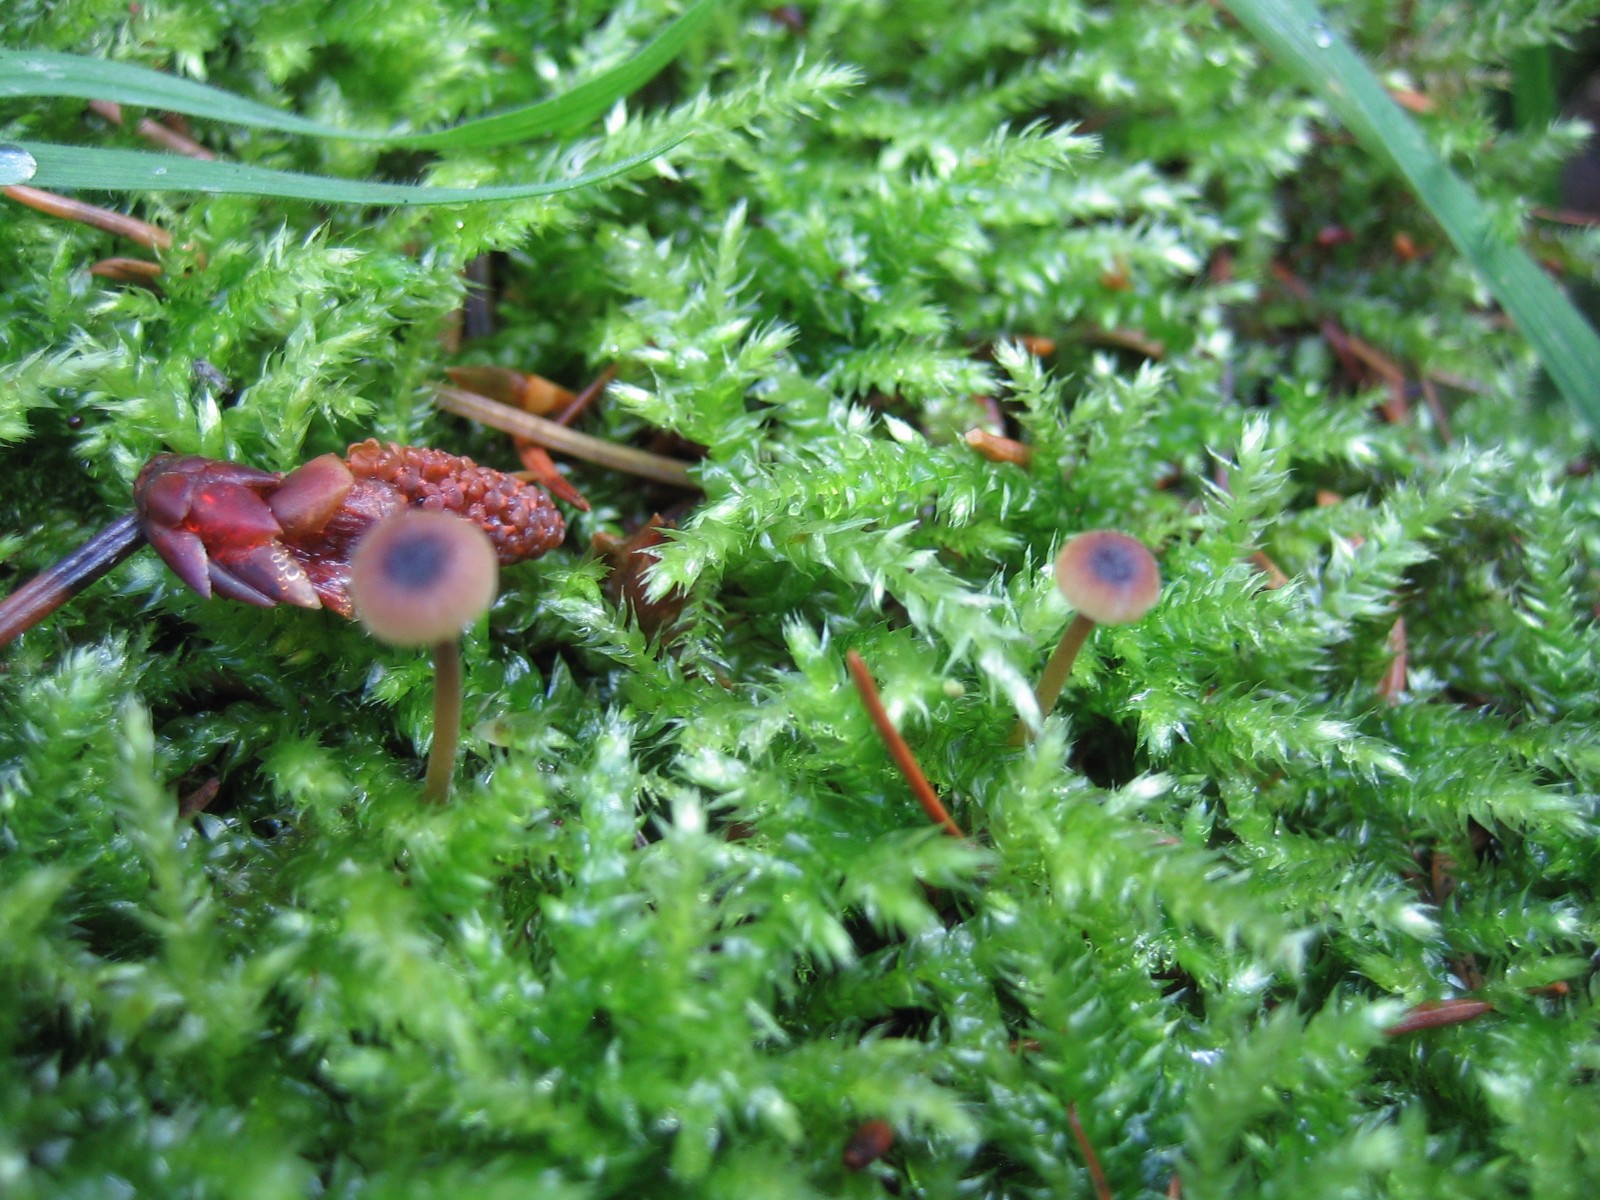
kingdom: Fungi
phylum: Basidiomycota
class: Agaricomycetes
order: Hymenochaetales
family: Rickenellaceae
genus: Rickenella
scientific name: Rickenella swartzii
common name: finstokket mosnavlehat
